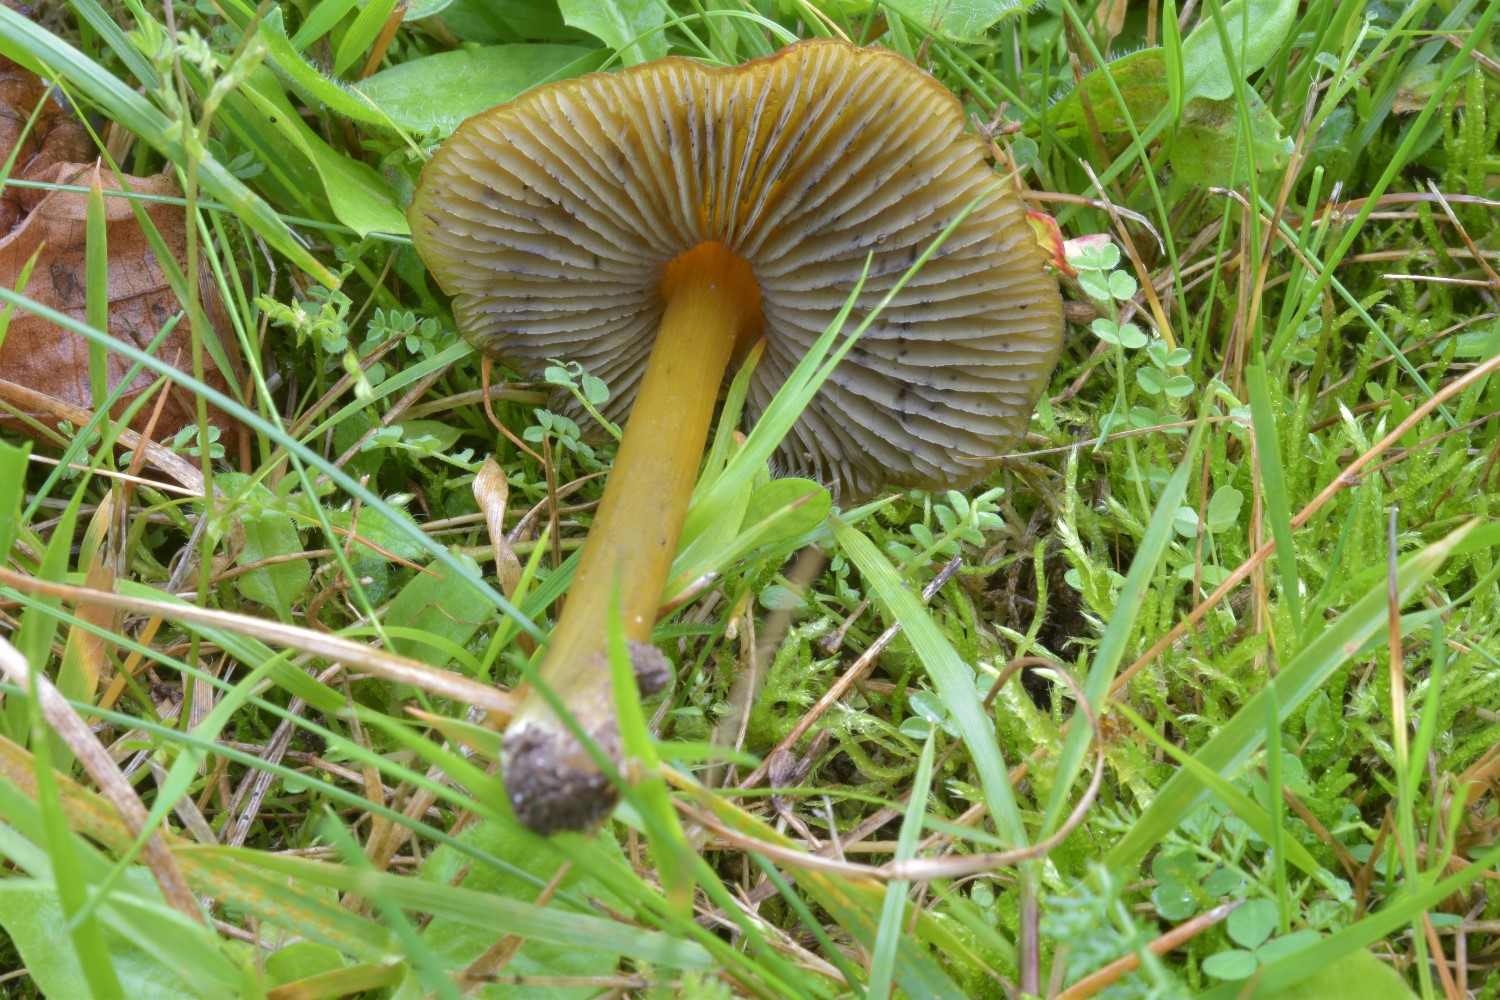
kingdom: Fungi
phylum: Basidiomycota
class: Agaricomycetes
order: Agaricales
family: Hygrophoraceae
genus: Hygrocybe
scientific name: Hygrocybe conica
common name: kegle-vokshat
